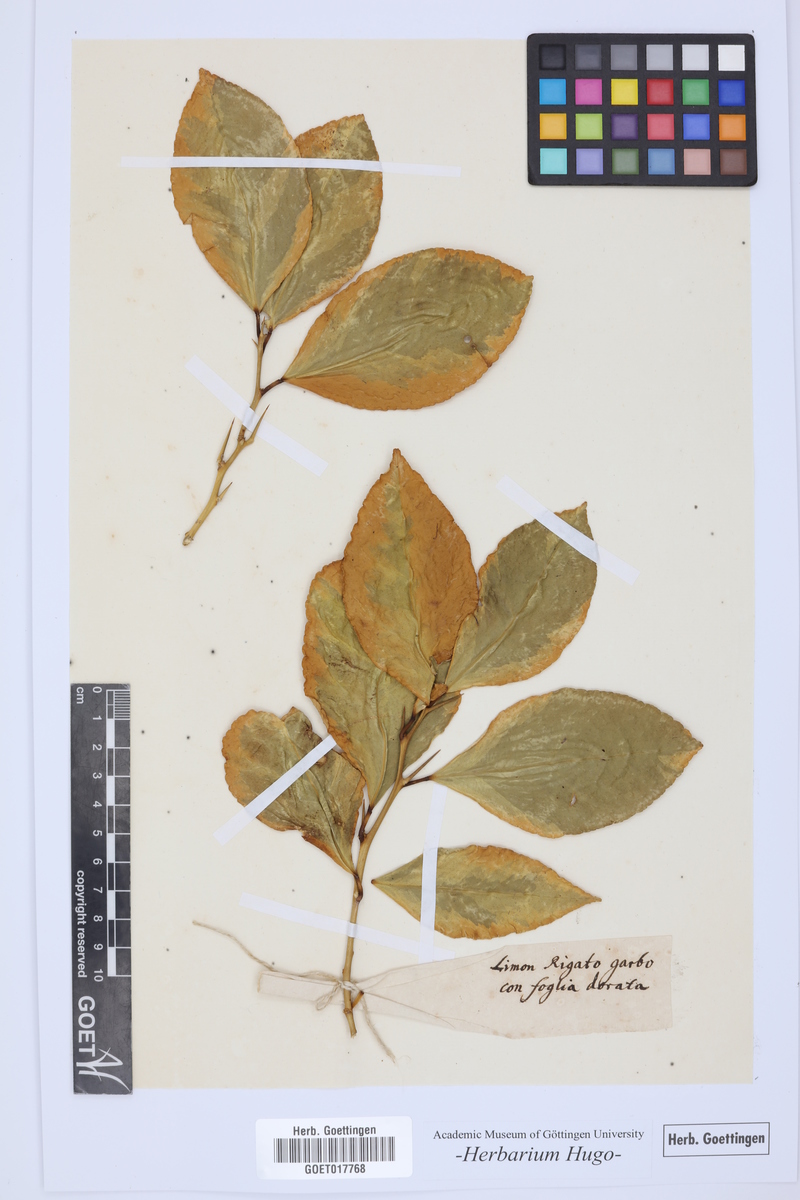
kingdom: Plantae
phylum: Tracheophyta
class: Magnoliopsida
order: Sapindales
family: Rutaceae
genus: Citrus
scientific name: Citrus
